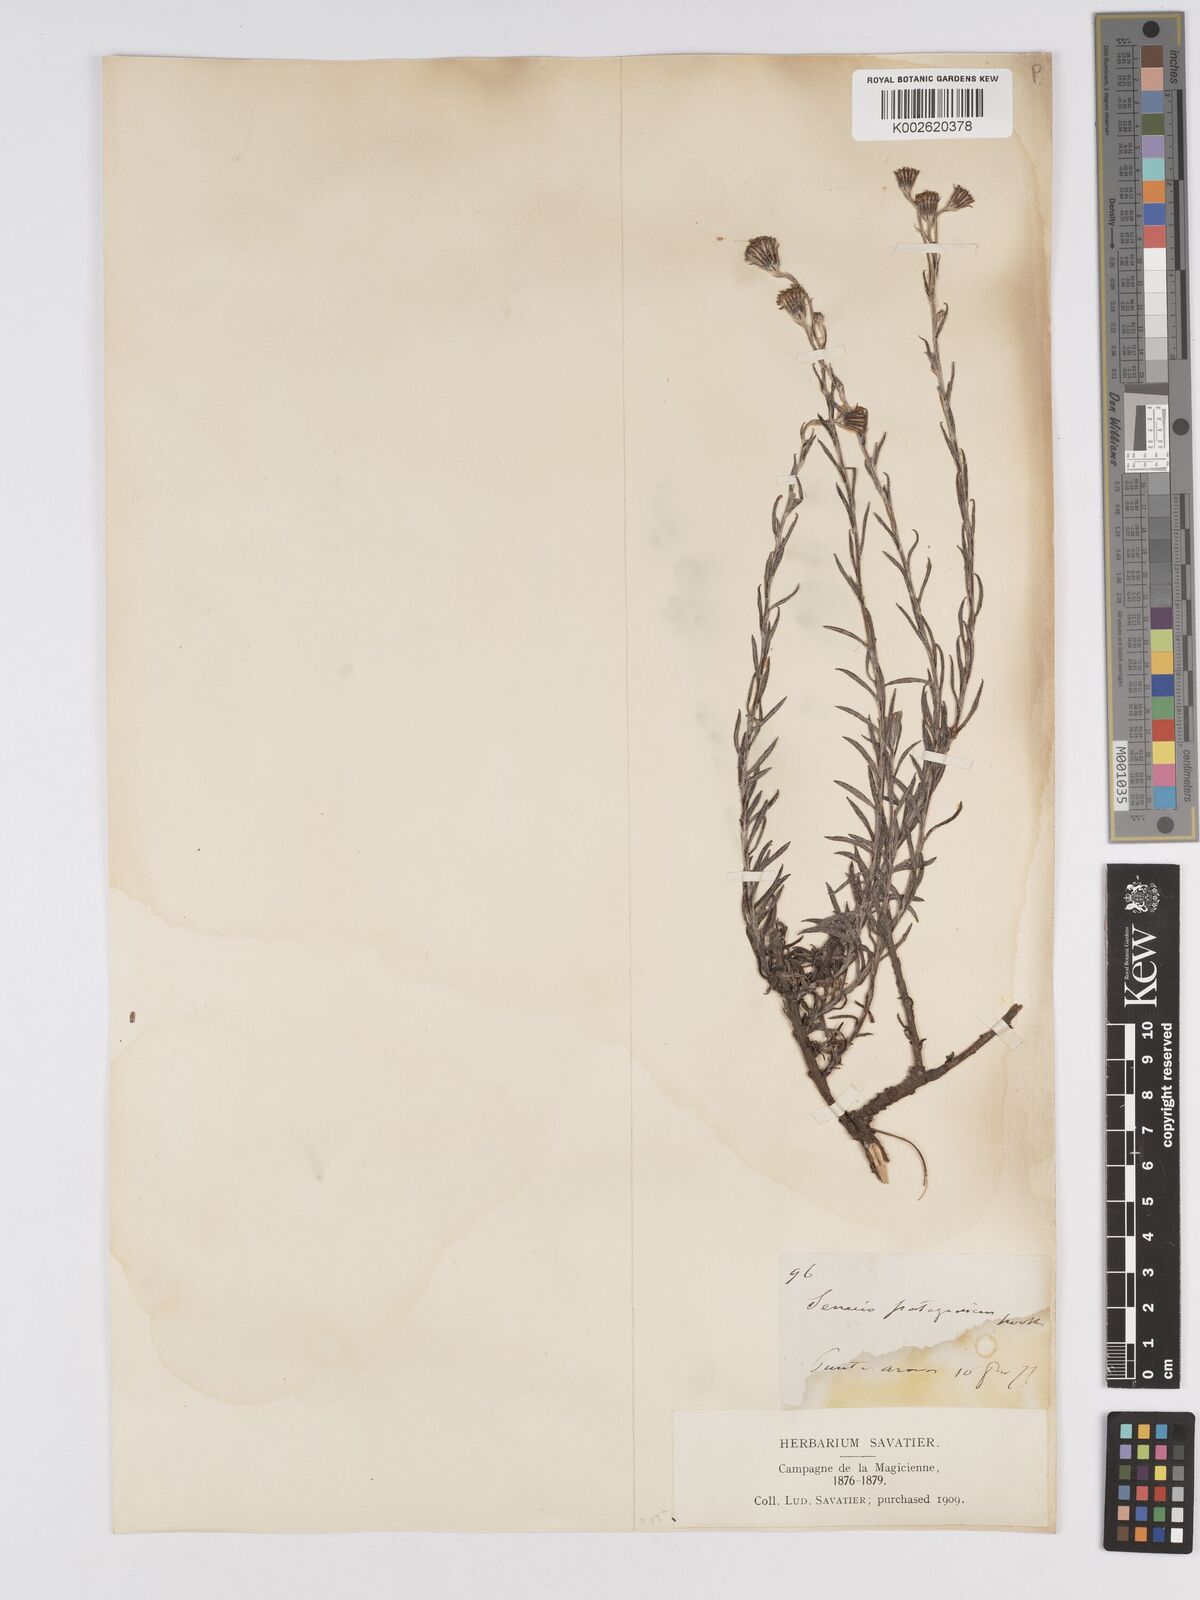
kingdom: Plantae
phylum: Tracheophyta
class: Magnoliopsida
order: Asterales
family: Asteraceae
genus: Senecio
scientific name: Senecio patagonicus
